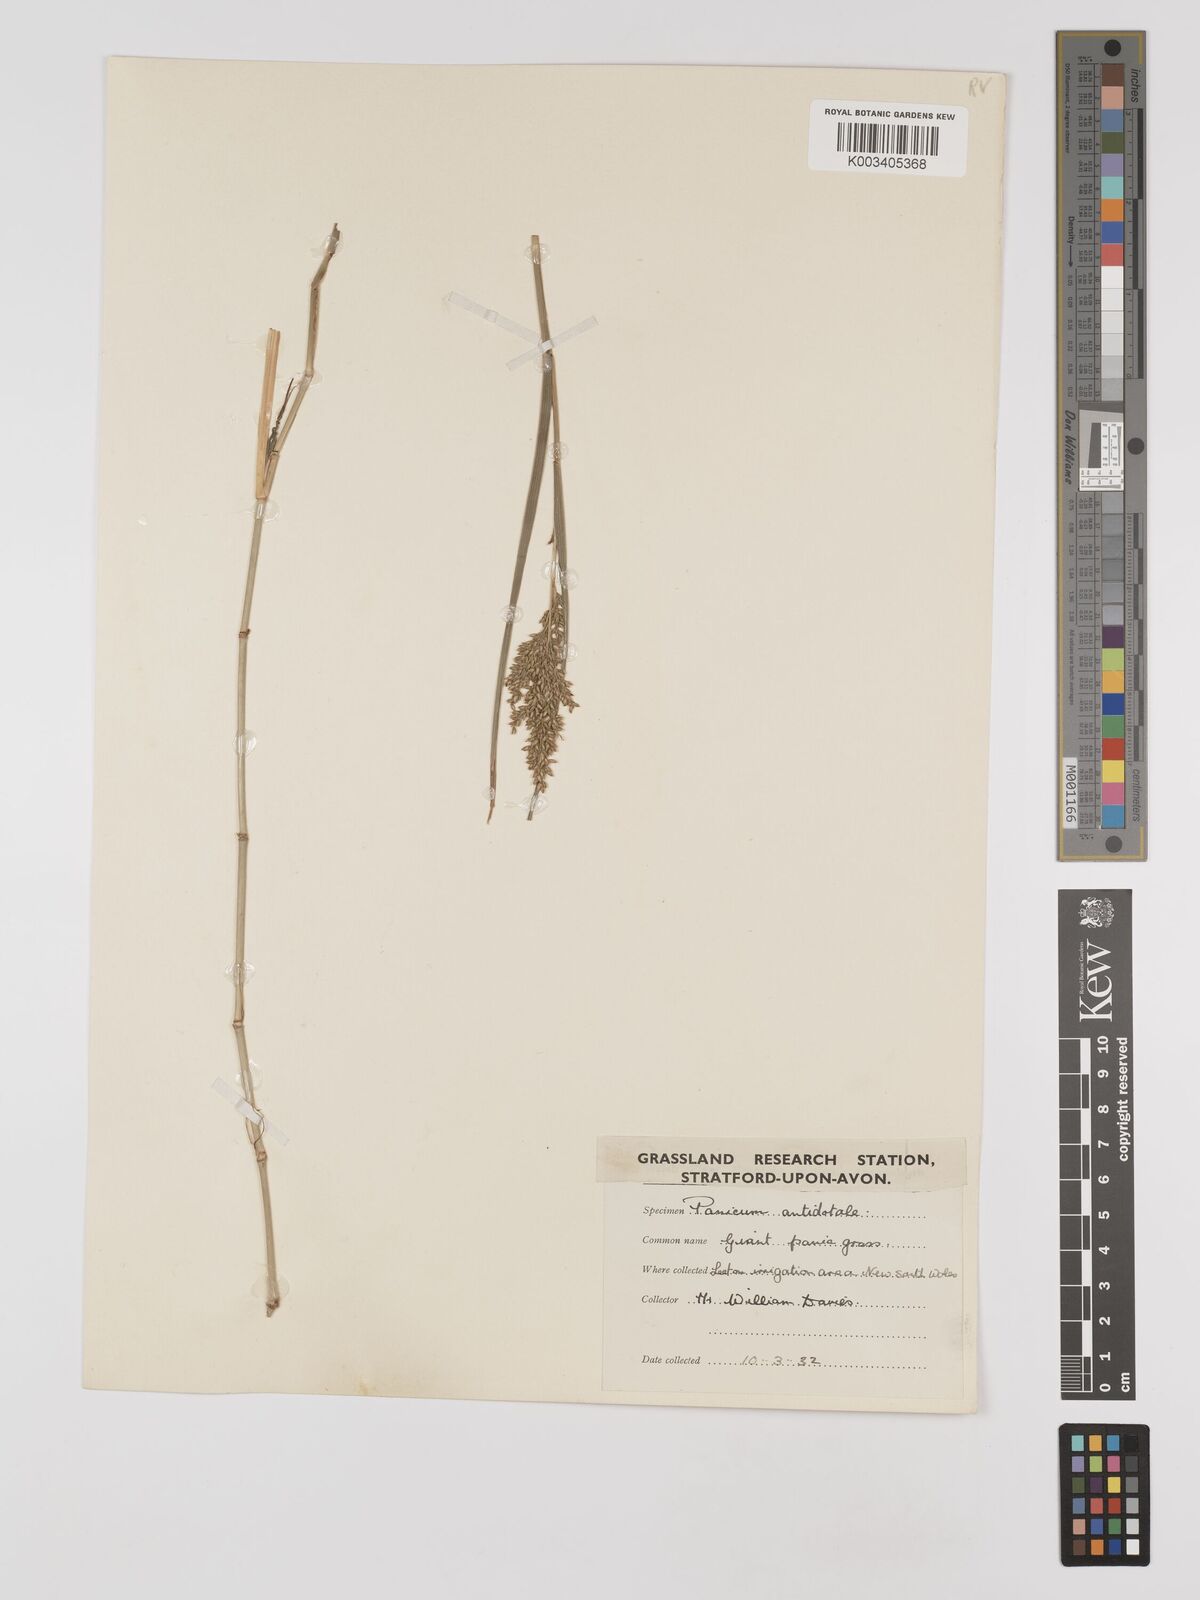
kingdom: Plantae
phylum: Tracheophyta
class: Liliopsida
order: Poales
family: Poaceae
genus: Panicum
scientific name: Panicum antidotale
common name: Blue panicum
